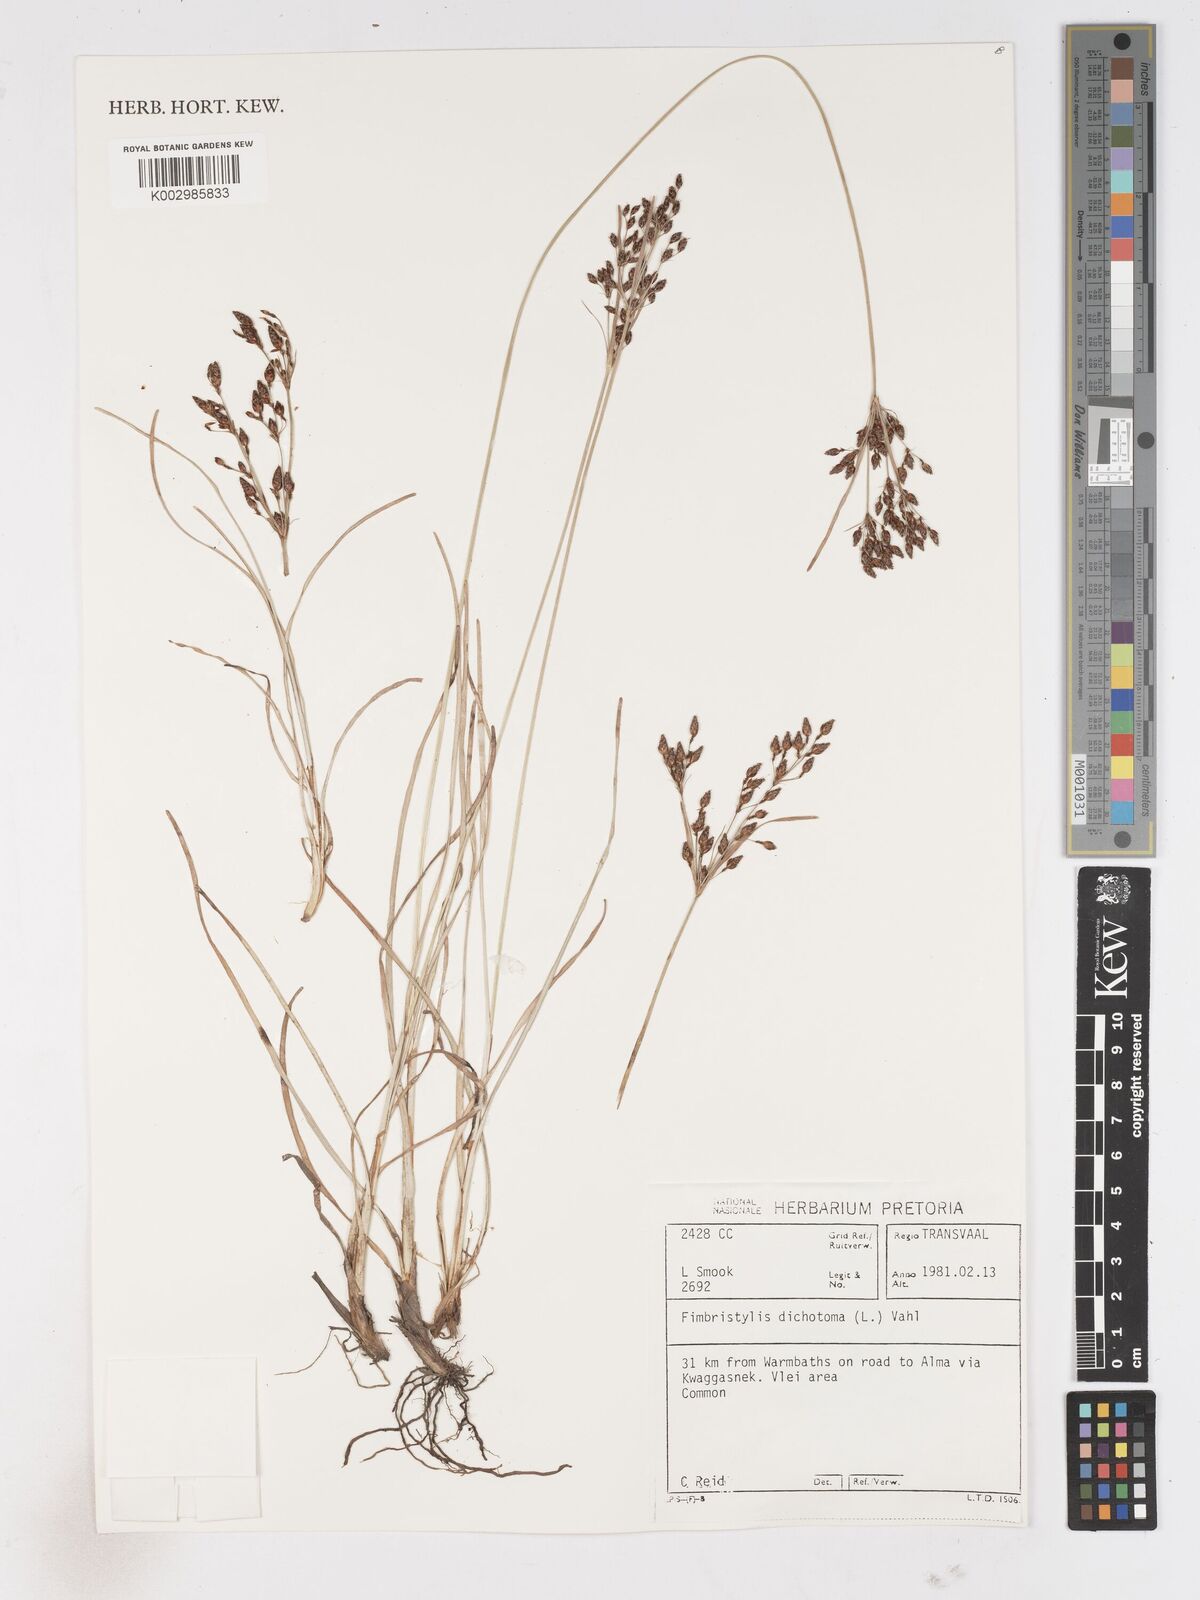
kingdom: Plantae
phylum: Tracheophyta
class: Liliopsida
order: Poales
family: Cyperaceae
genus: Fimbristylis
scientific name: Fimbristylis dichotoma
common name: Forked fimbry
